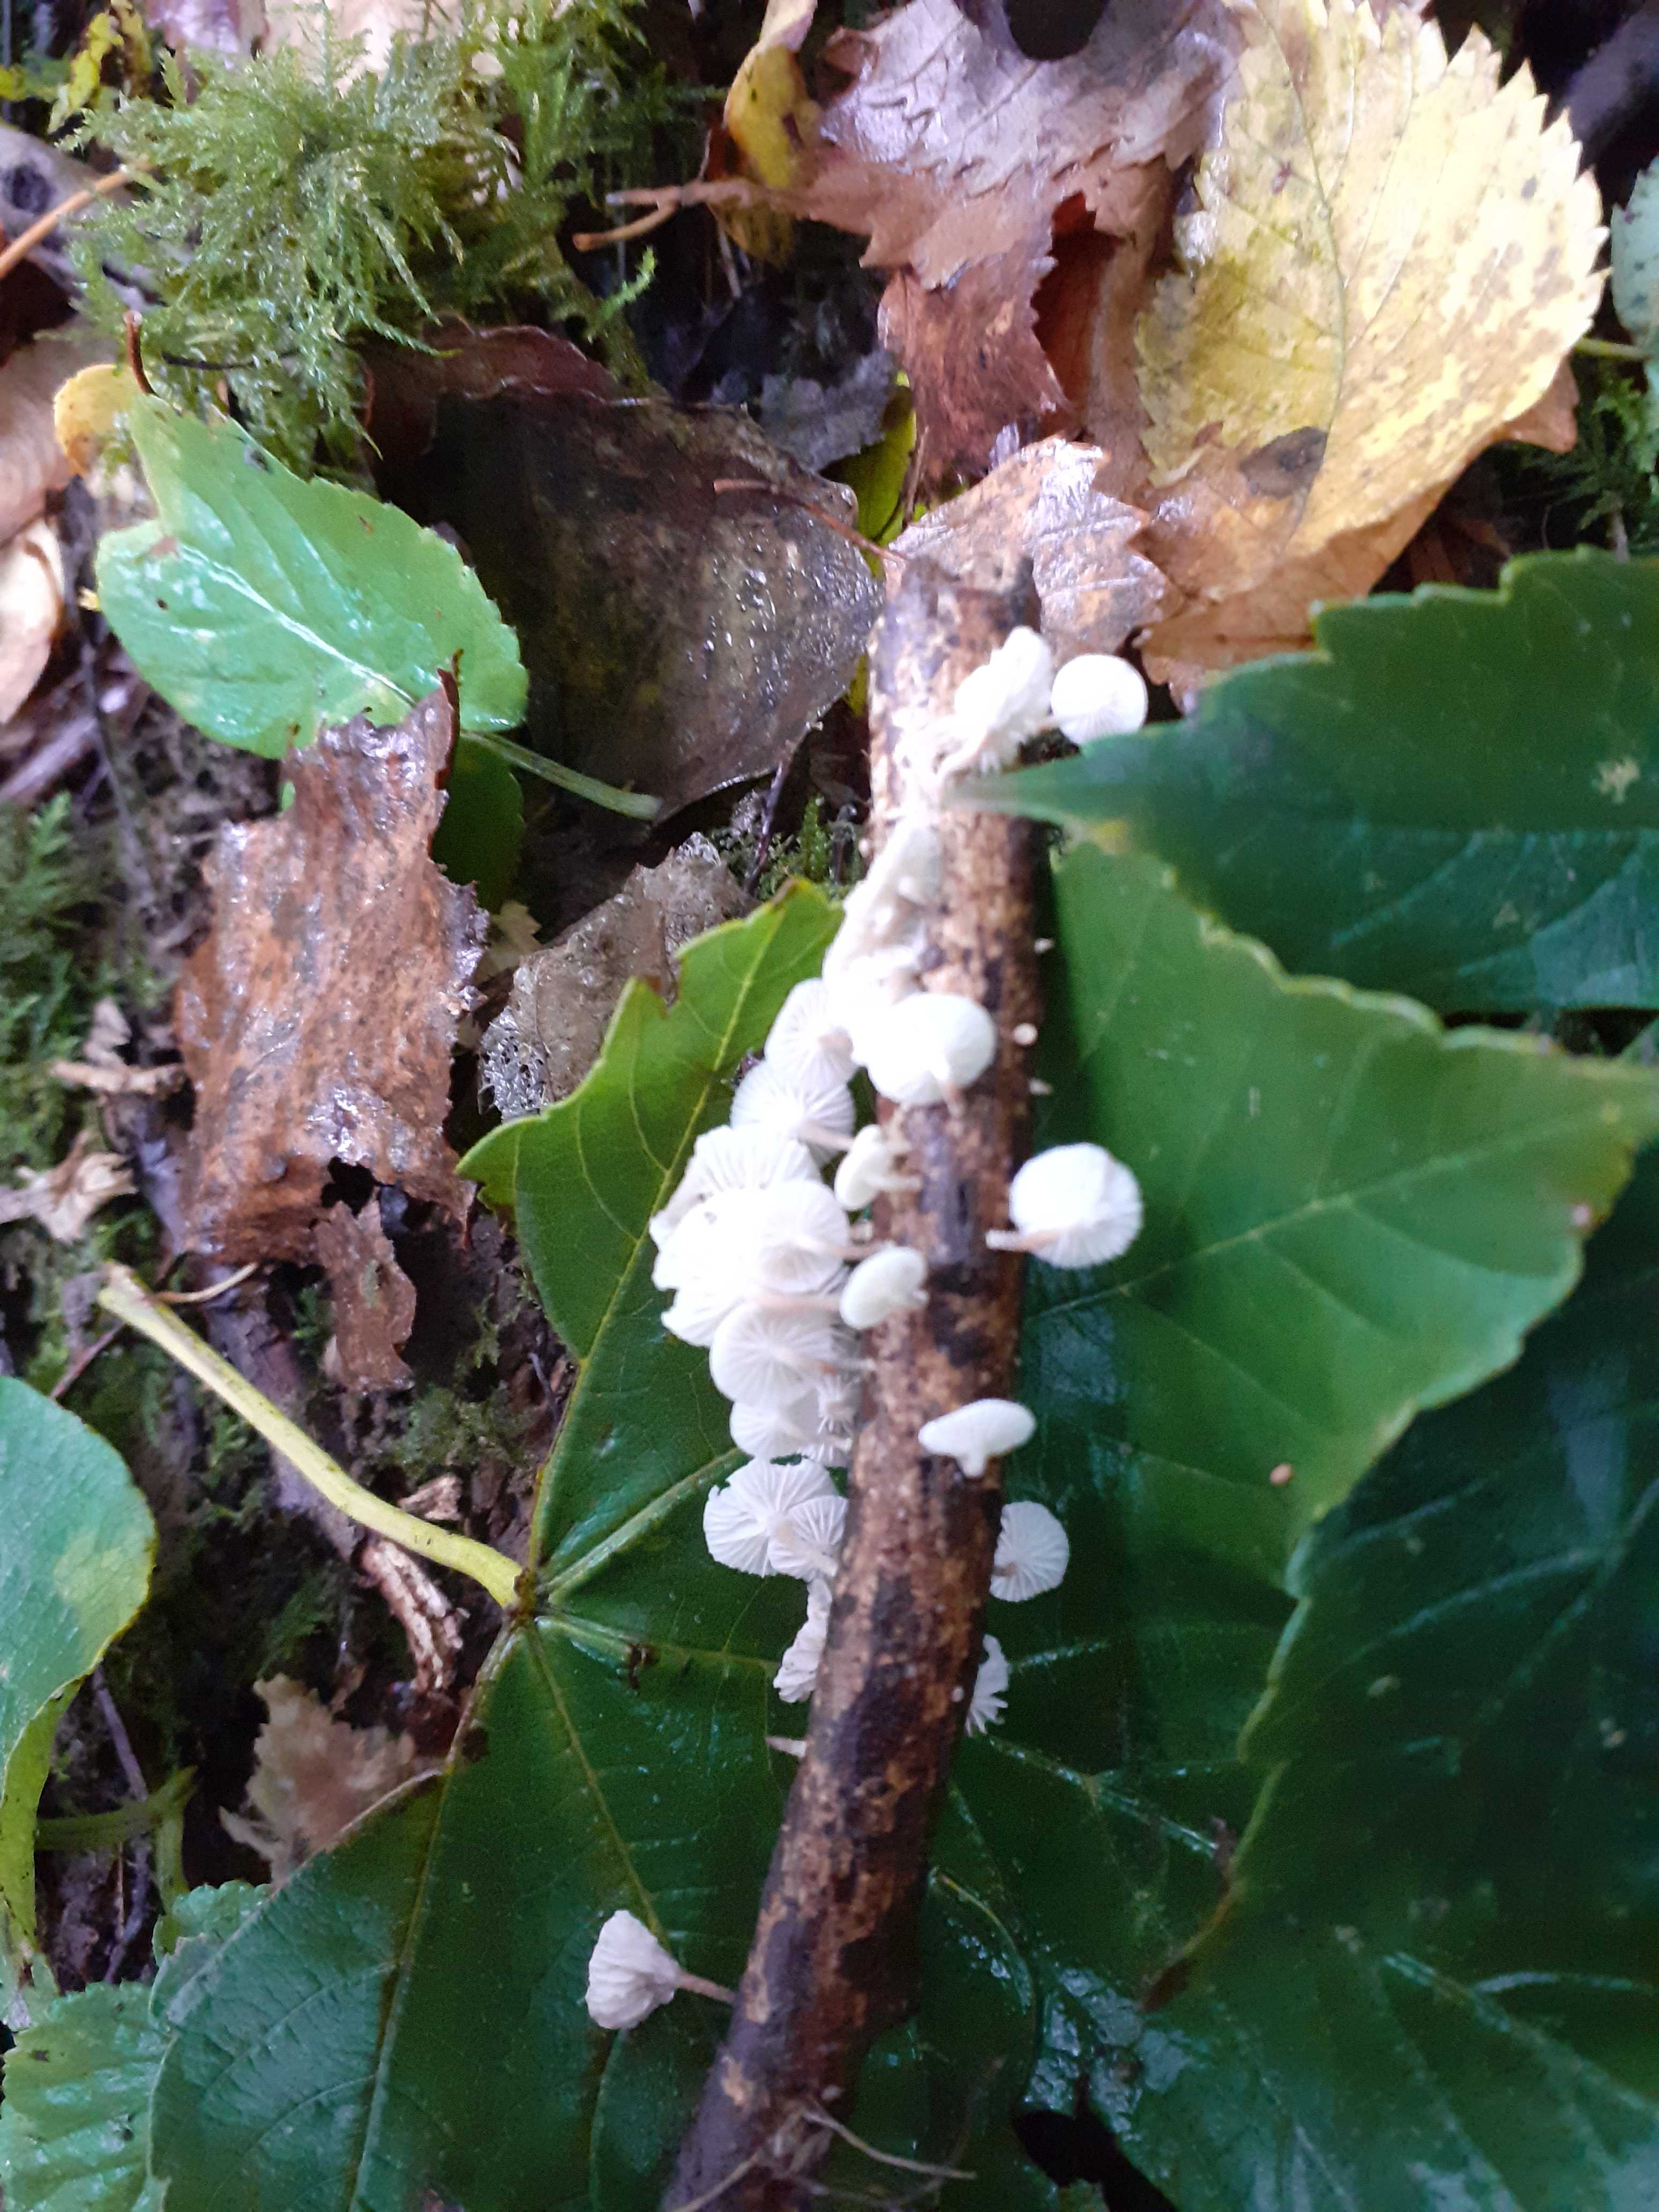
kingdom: Fungi
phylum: Basidiomycota
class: Agaricomycetes
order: Agaricales
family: Omphalotaceae
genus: Collybiopsis
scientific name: Collybiopsis ramealis
